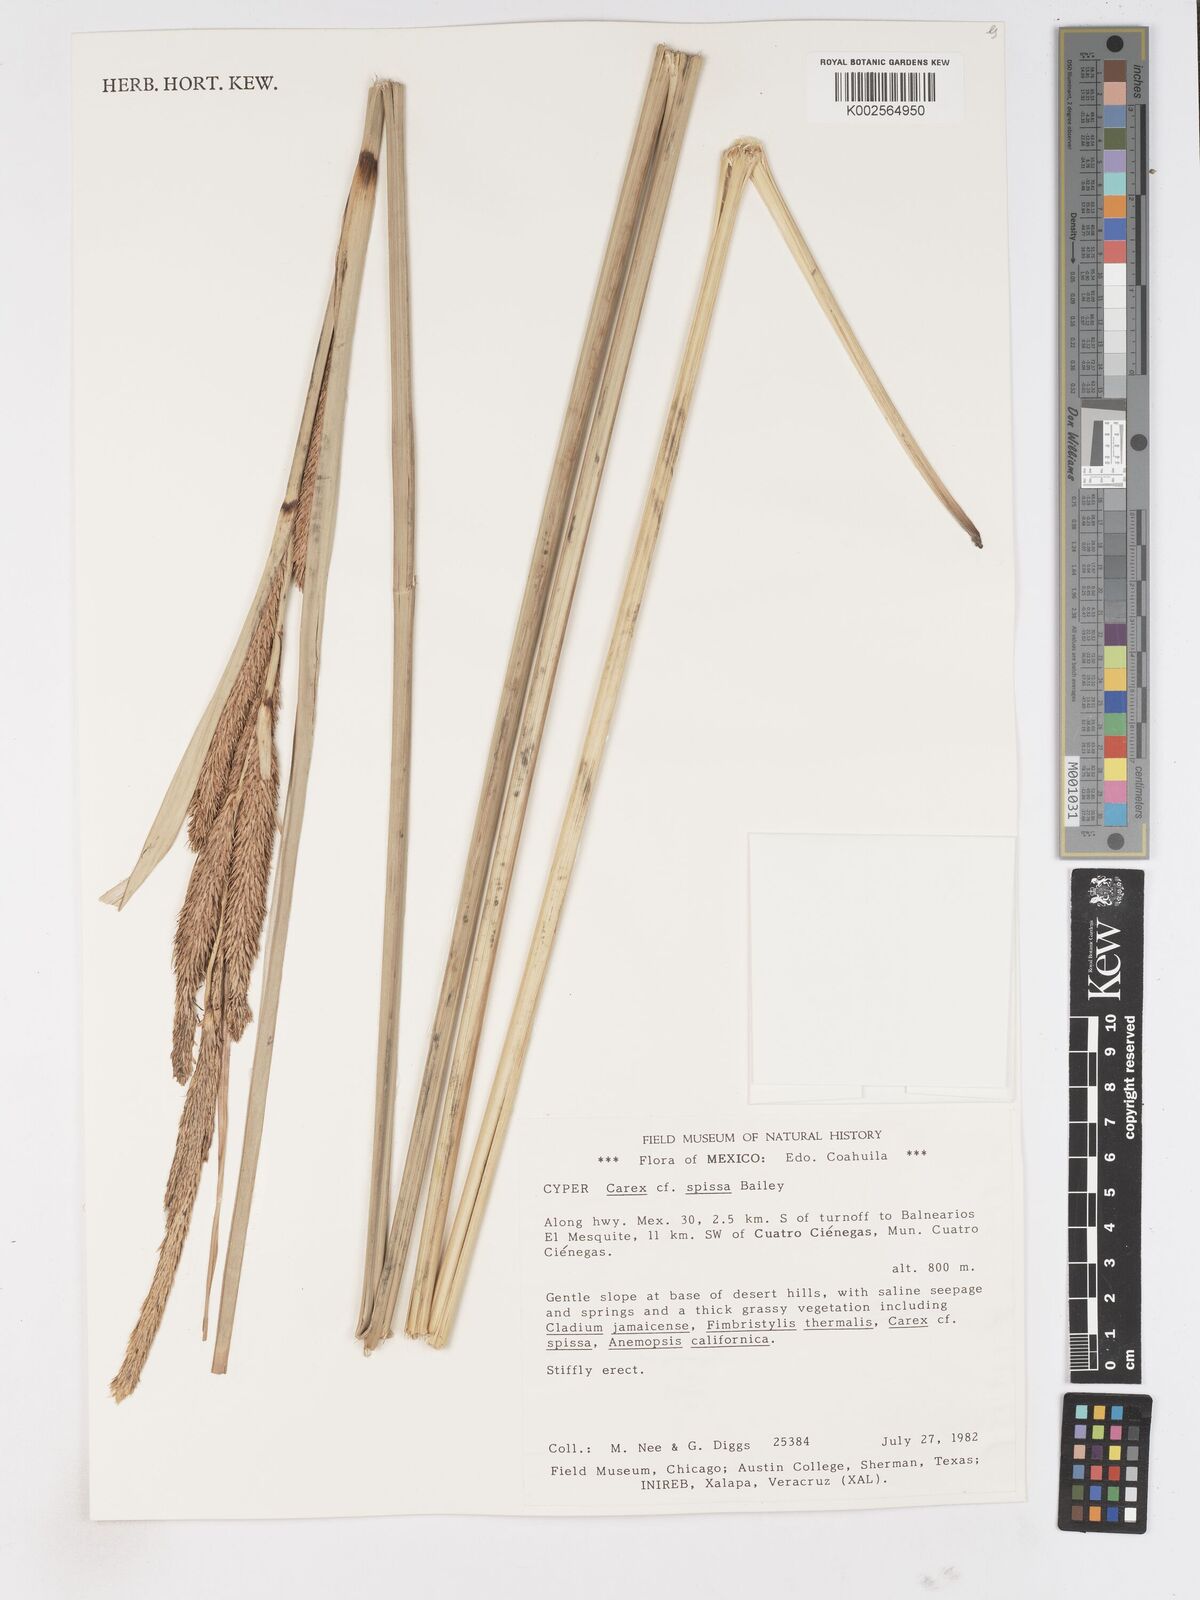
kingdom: Plantae
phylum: Tracheophyta
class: Liliopsida
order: Poales
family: Cyperaceae
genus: Carex
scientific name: Carex spissa
